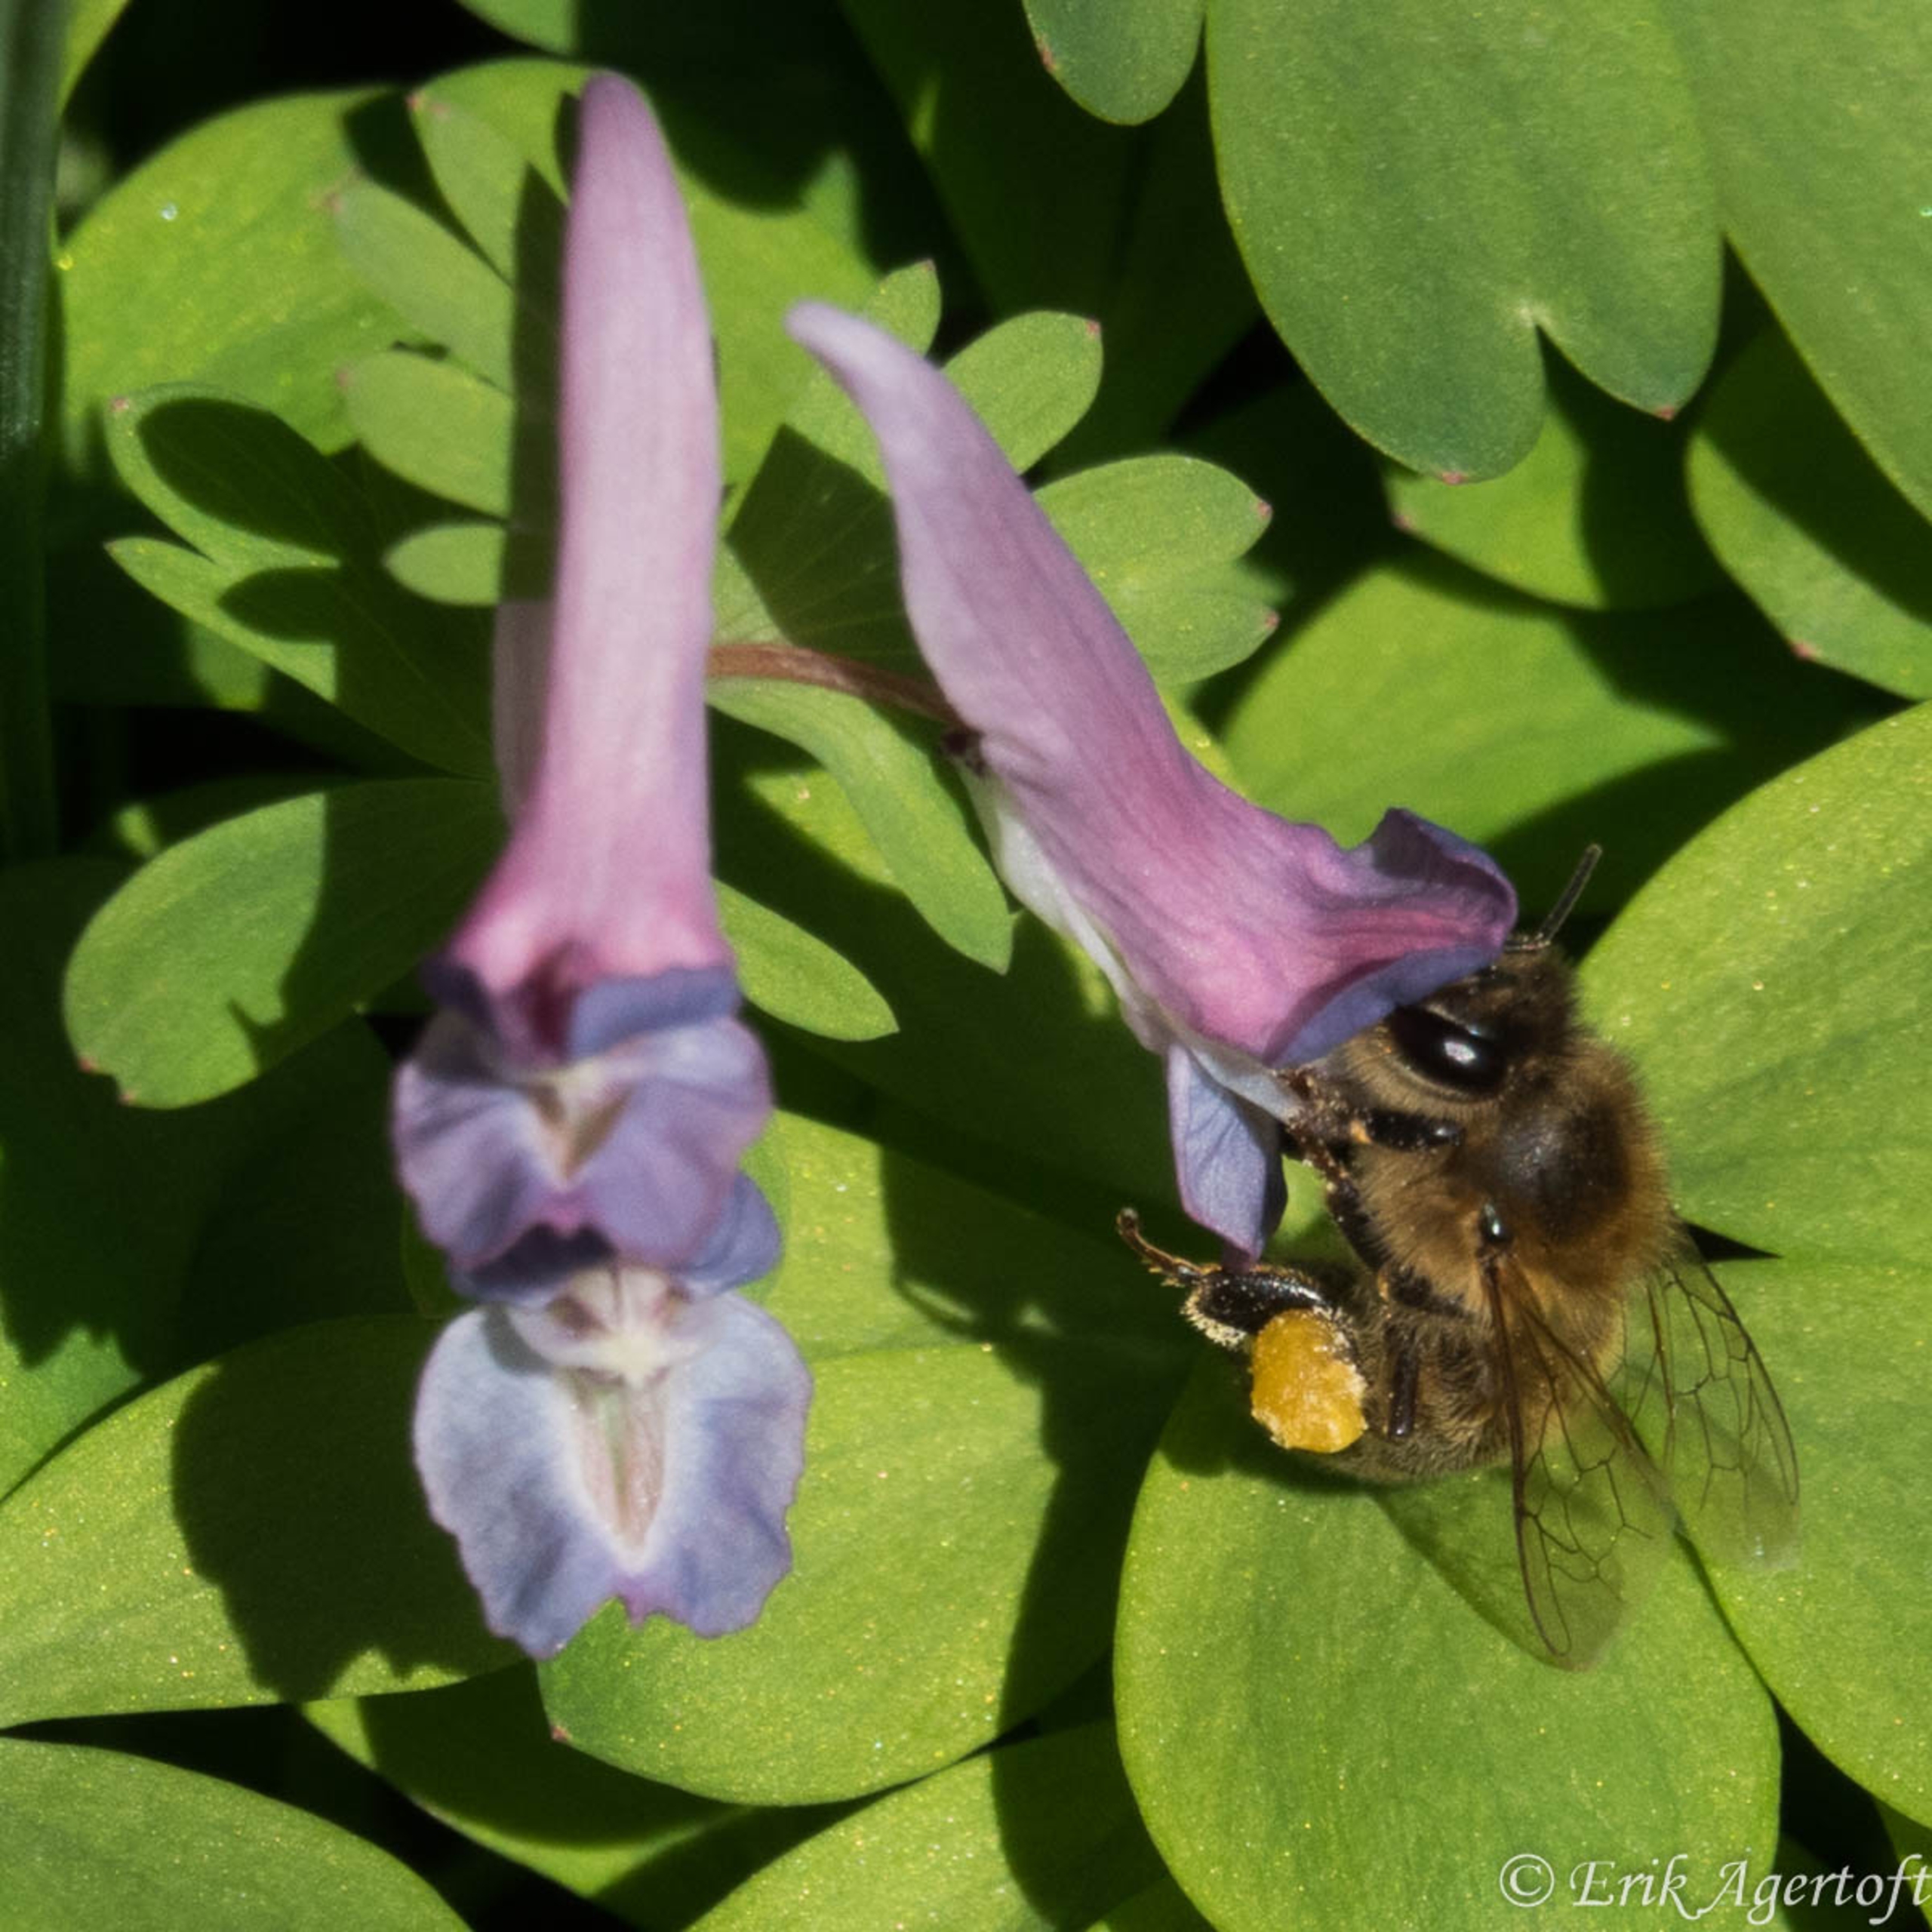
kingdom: Animalia
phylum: Arthropoda
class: Insecta
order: Hymenoptera
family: Apidae
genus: Apis
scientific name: Apis mellifera
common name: Honningbi
